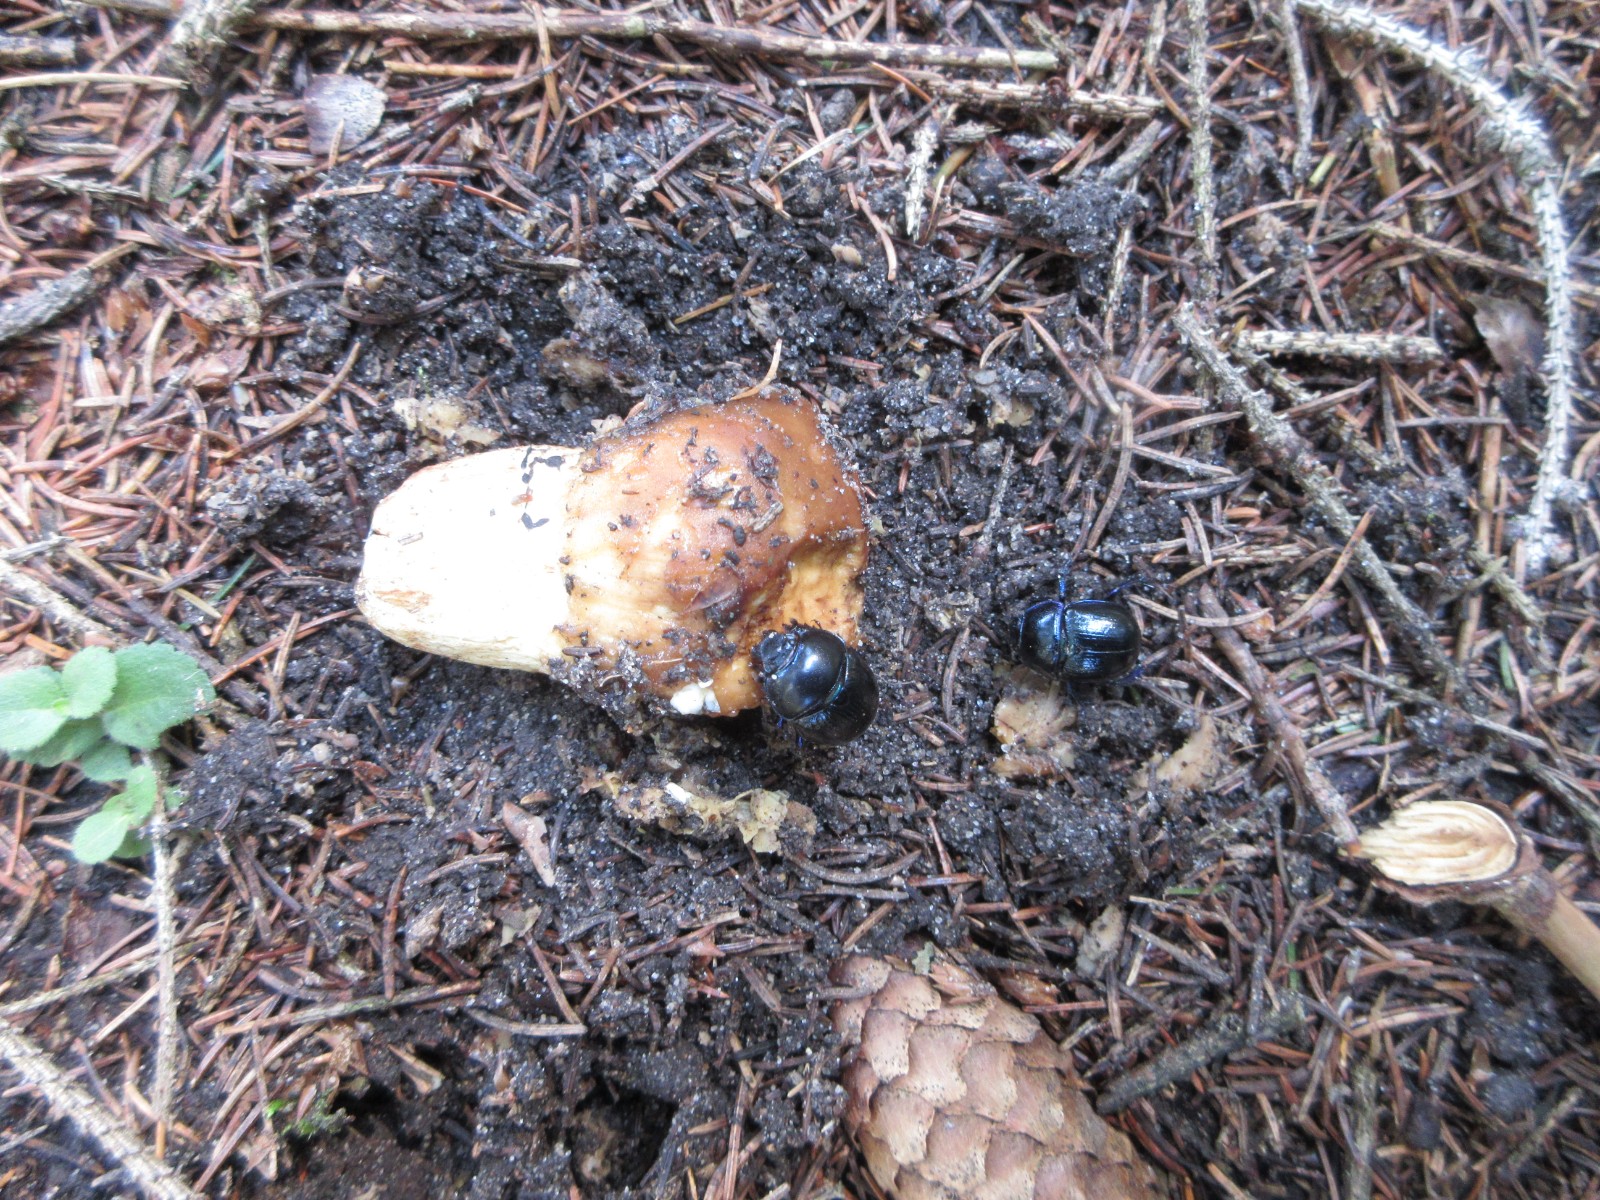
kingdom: Fungi
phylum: Basidiomycota
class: Agaricomycetes
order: Russulales
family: Russulaceae
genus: Russula
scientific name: Russula foetens
